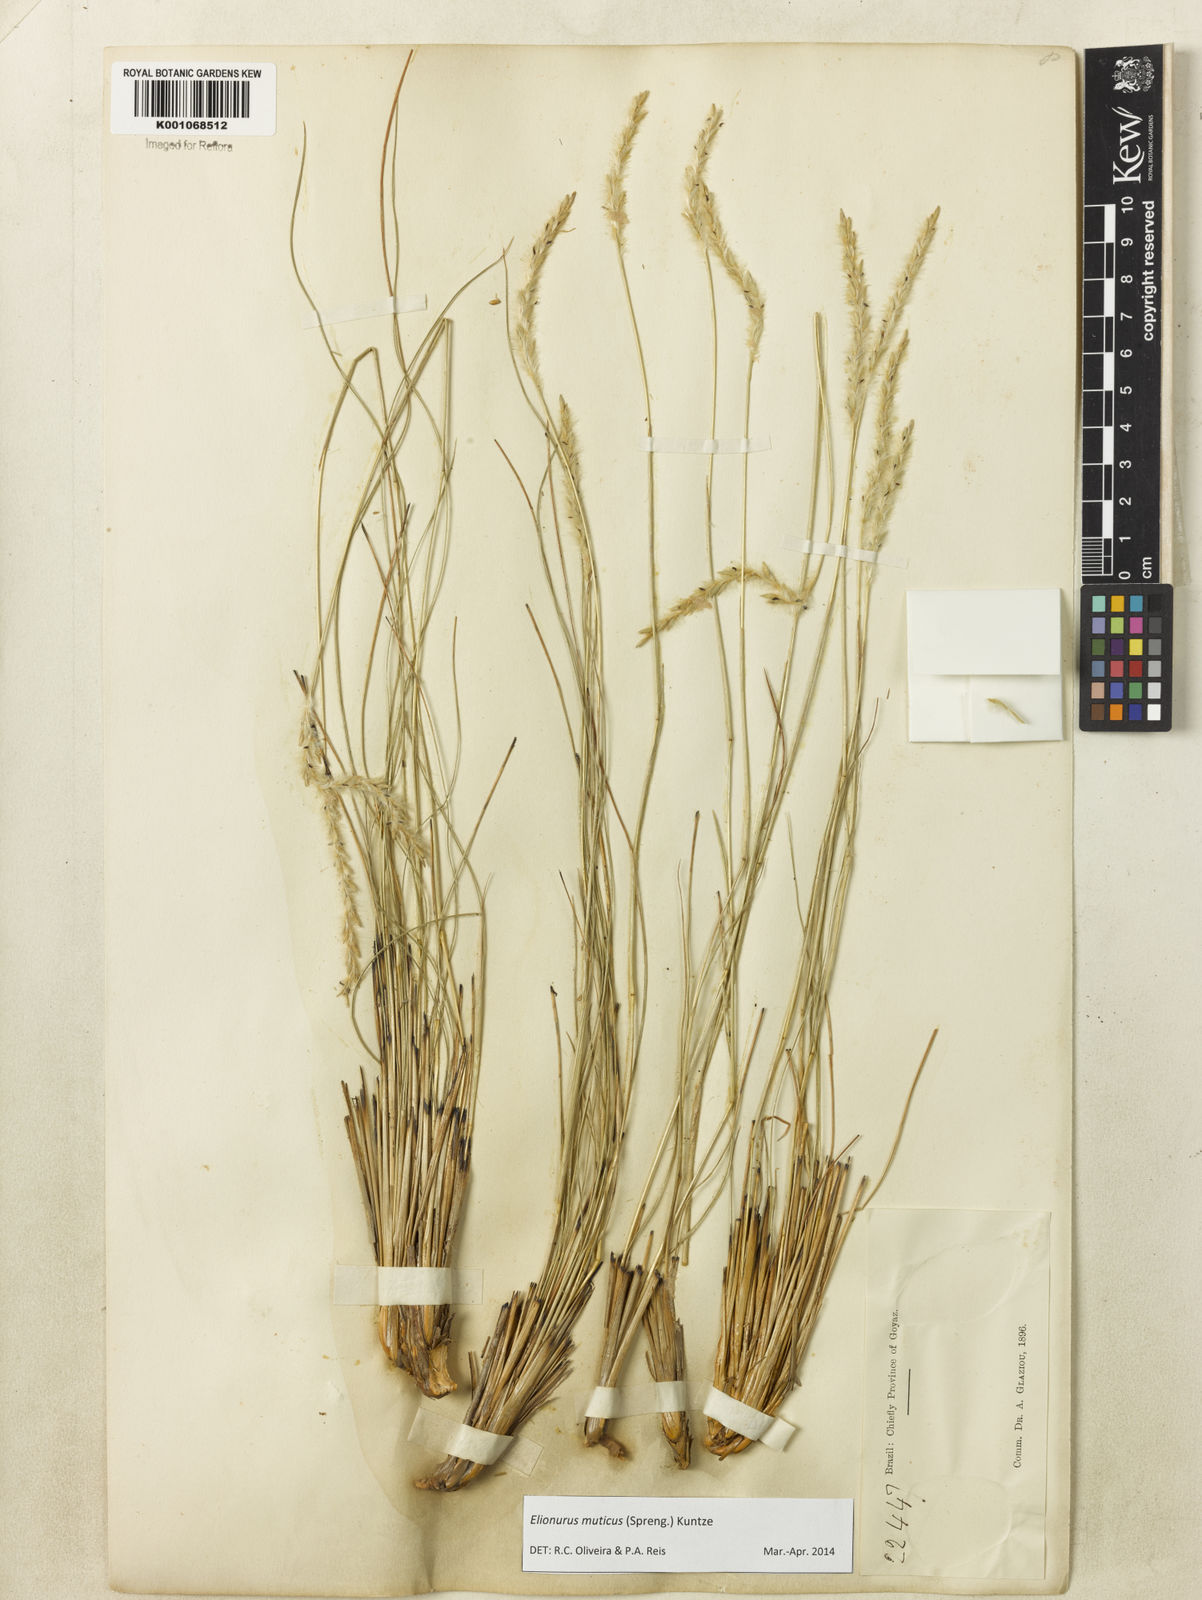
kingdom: Plantae
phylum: Tracheophyta
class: Liliopsida
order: Poales
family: Poaceae
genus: Elionurus
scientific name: Elionurus muticus
